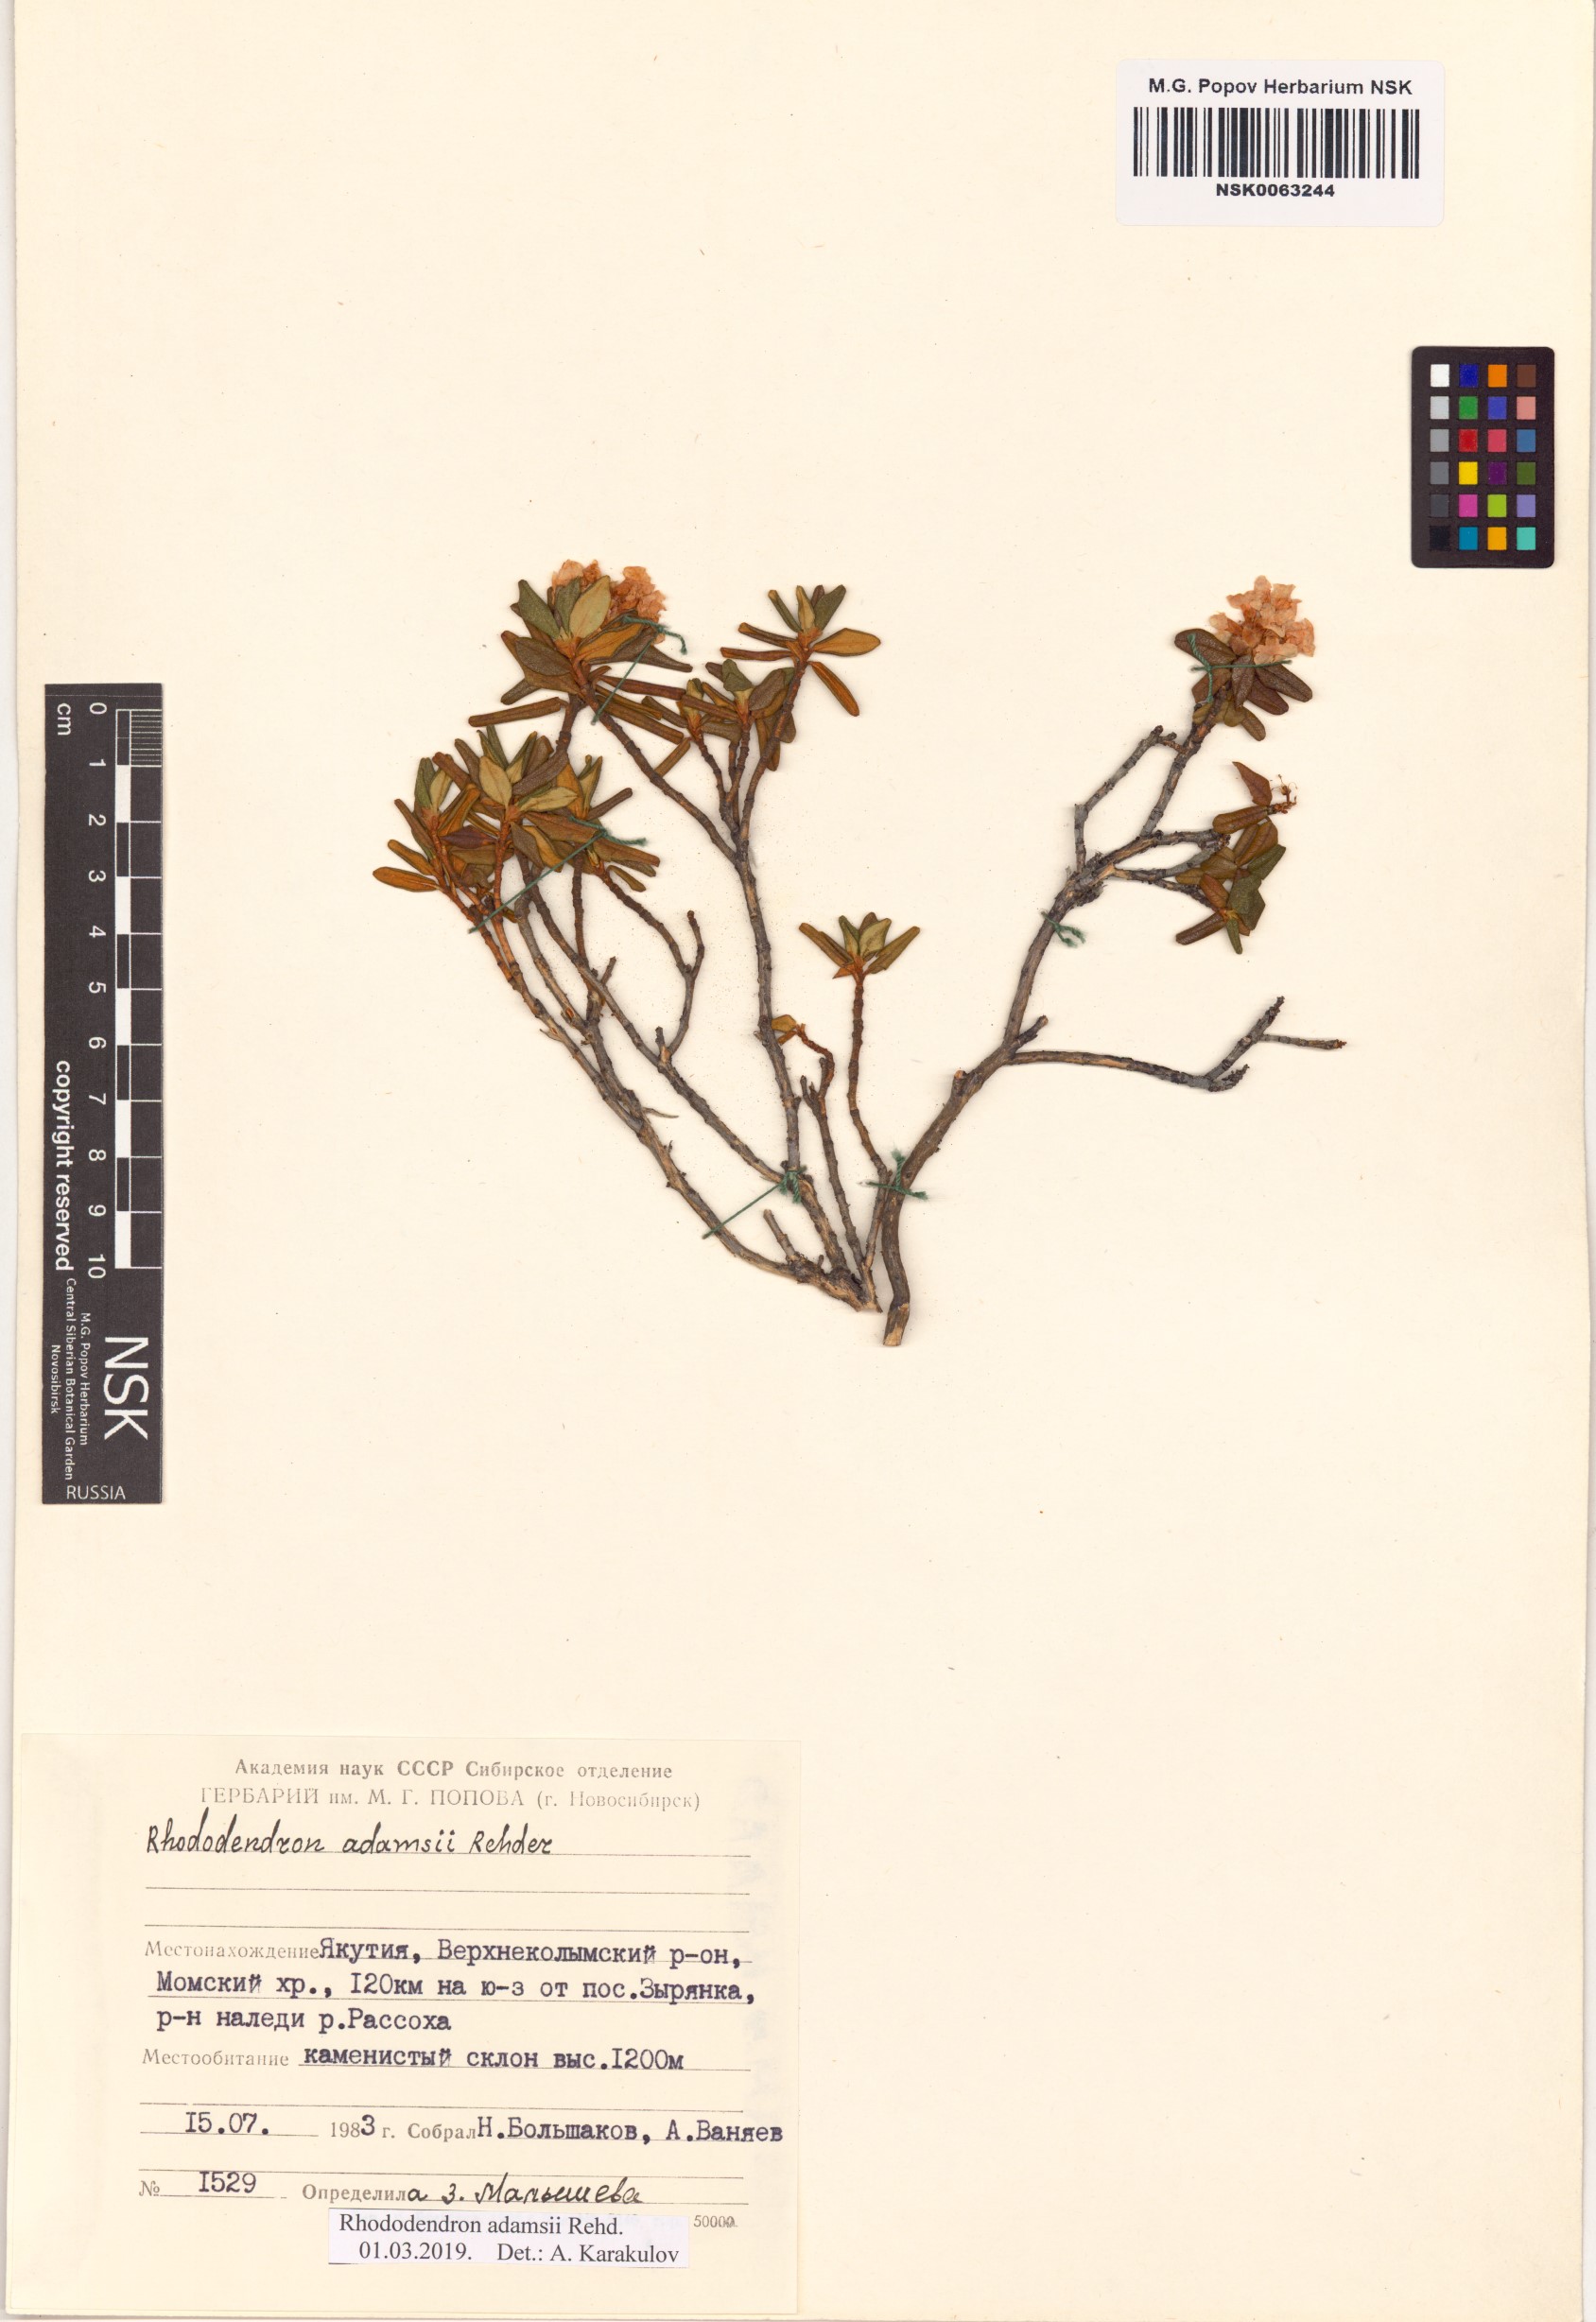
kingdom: Plantae
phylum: Tracheophyta
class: Magnoliopsida
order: Ericales
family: Ericaceae
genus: Rhododendron
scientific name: Rhododendron adamsii
